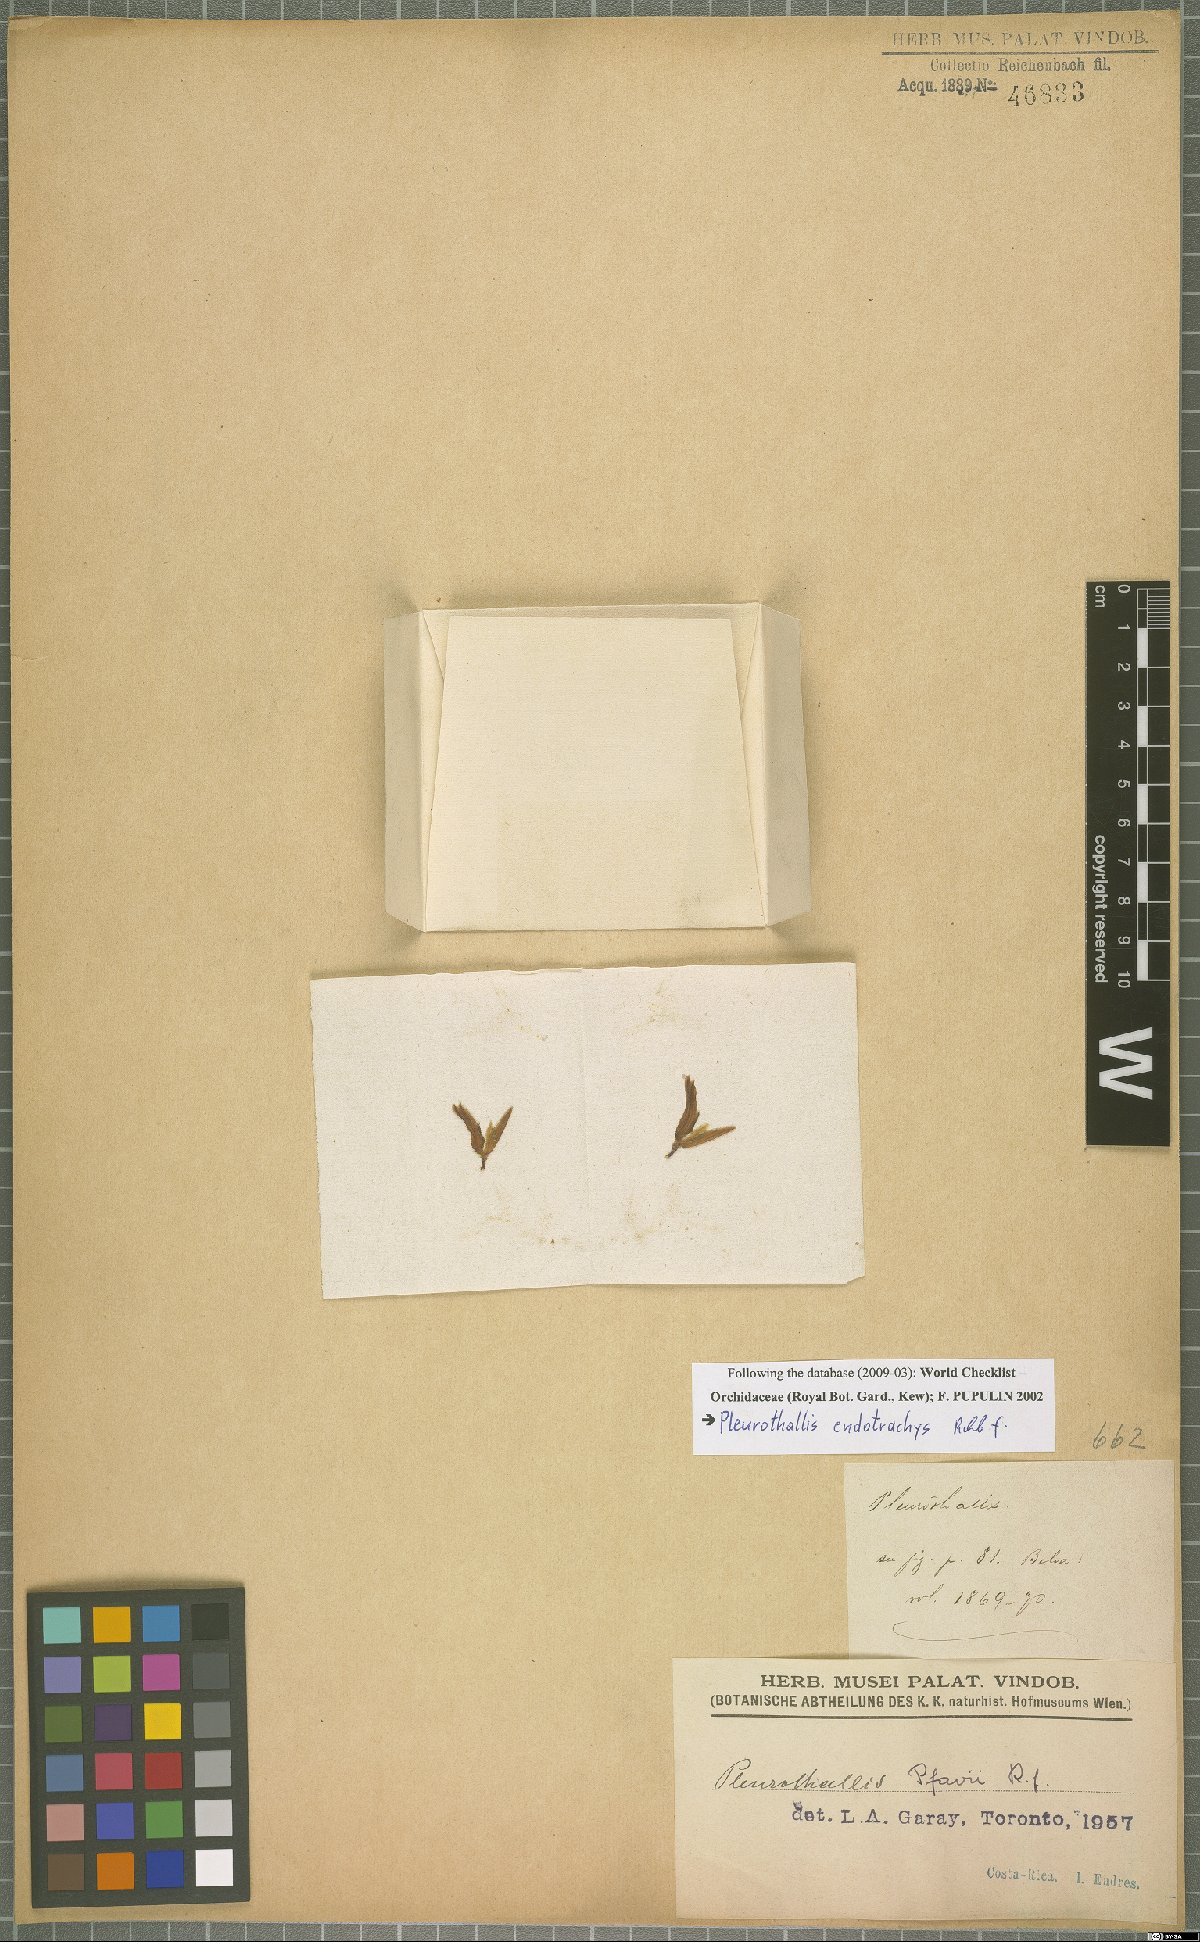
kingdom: Plantae
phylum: Tracheophyta
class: Liliopsida
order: Asparagales
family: Orchidaceae
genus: Specklinia
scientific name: Specklinia endotrachys
